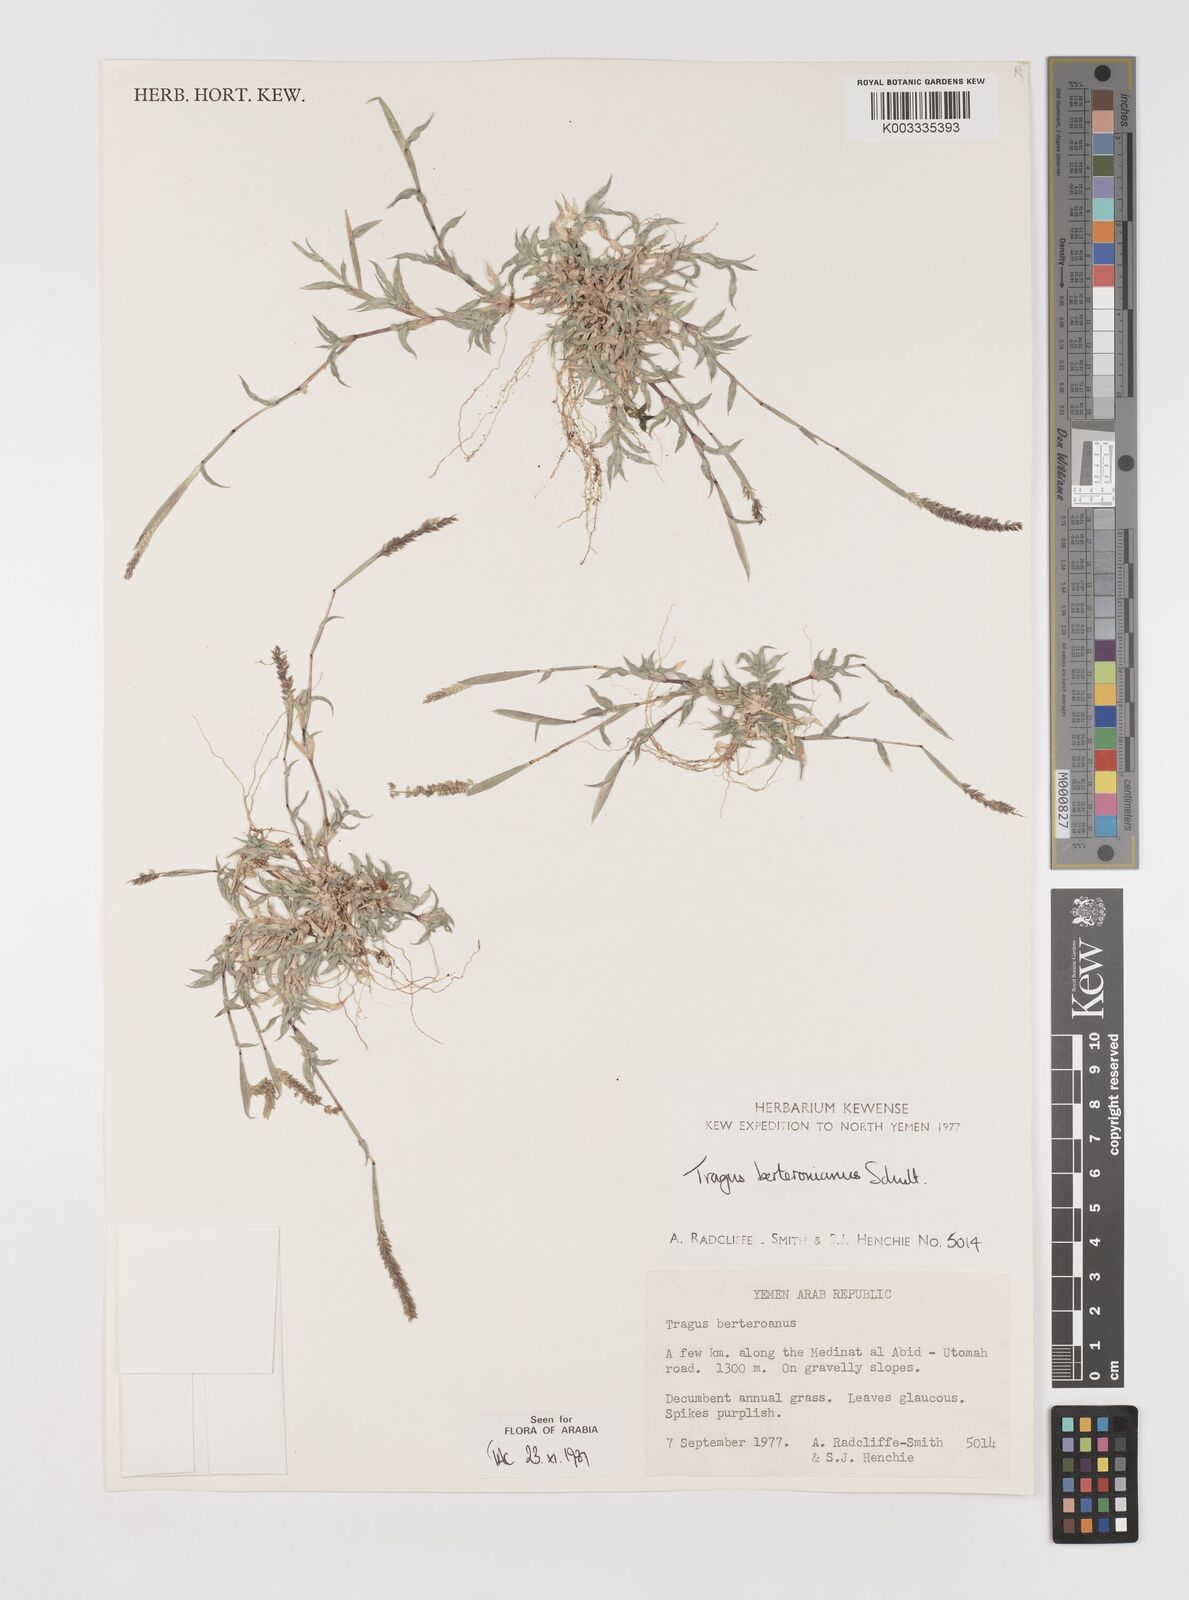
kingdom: Plantae
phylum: Tracheophyta
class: Liliopsida
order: Poales
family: Poaceae
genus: Tragus
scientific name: Tragus berteronianus
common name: African bur-grass
